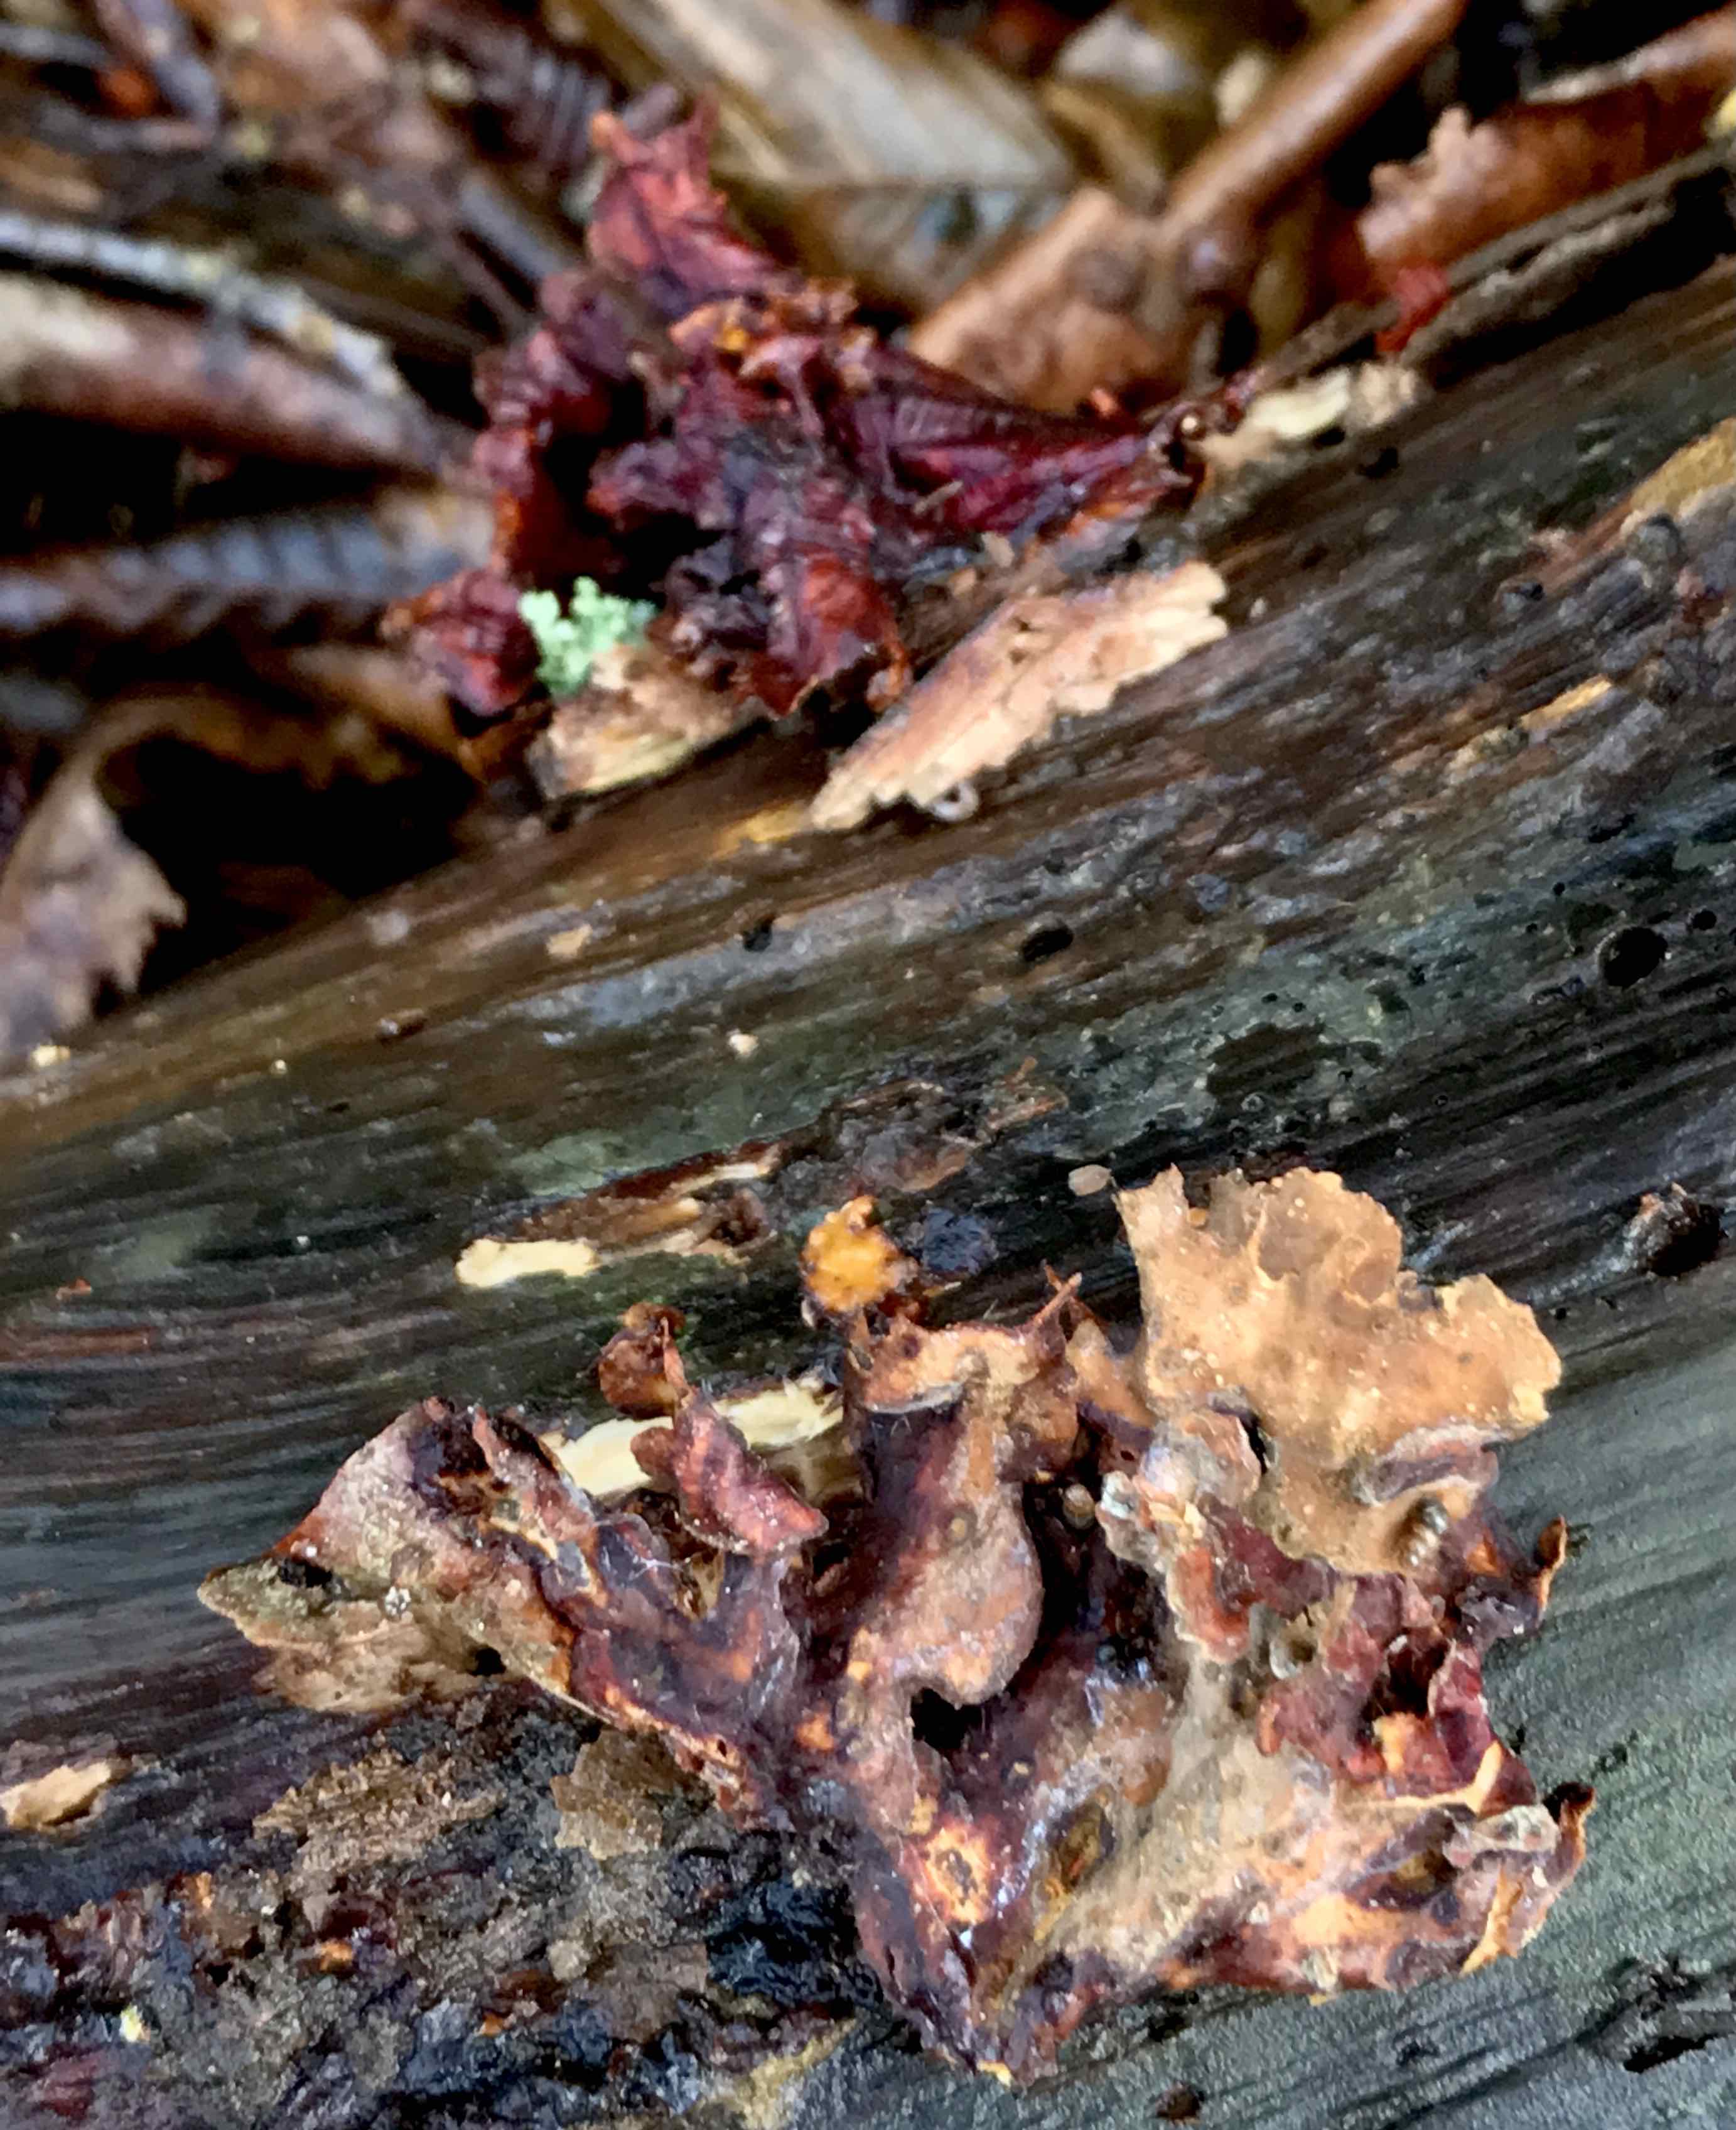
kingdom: Fungi
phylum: Basidiomycota
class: Agaricomycetes
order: Russulales
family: Stereaceae
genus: Stereum
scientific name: Stereum subtomentosum
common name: smuk lædersvamp
